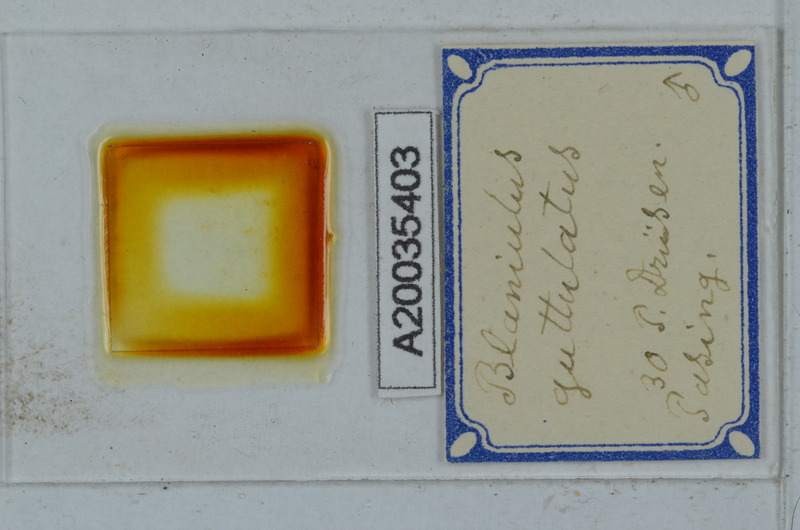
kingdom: Animalia
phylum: Arthropoda
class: Diplopoda
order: Julida
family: Blaniulidae
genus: Blaniulus
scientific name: Blaniulus guttulatus
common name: Spotted snake millipede
